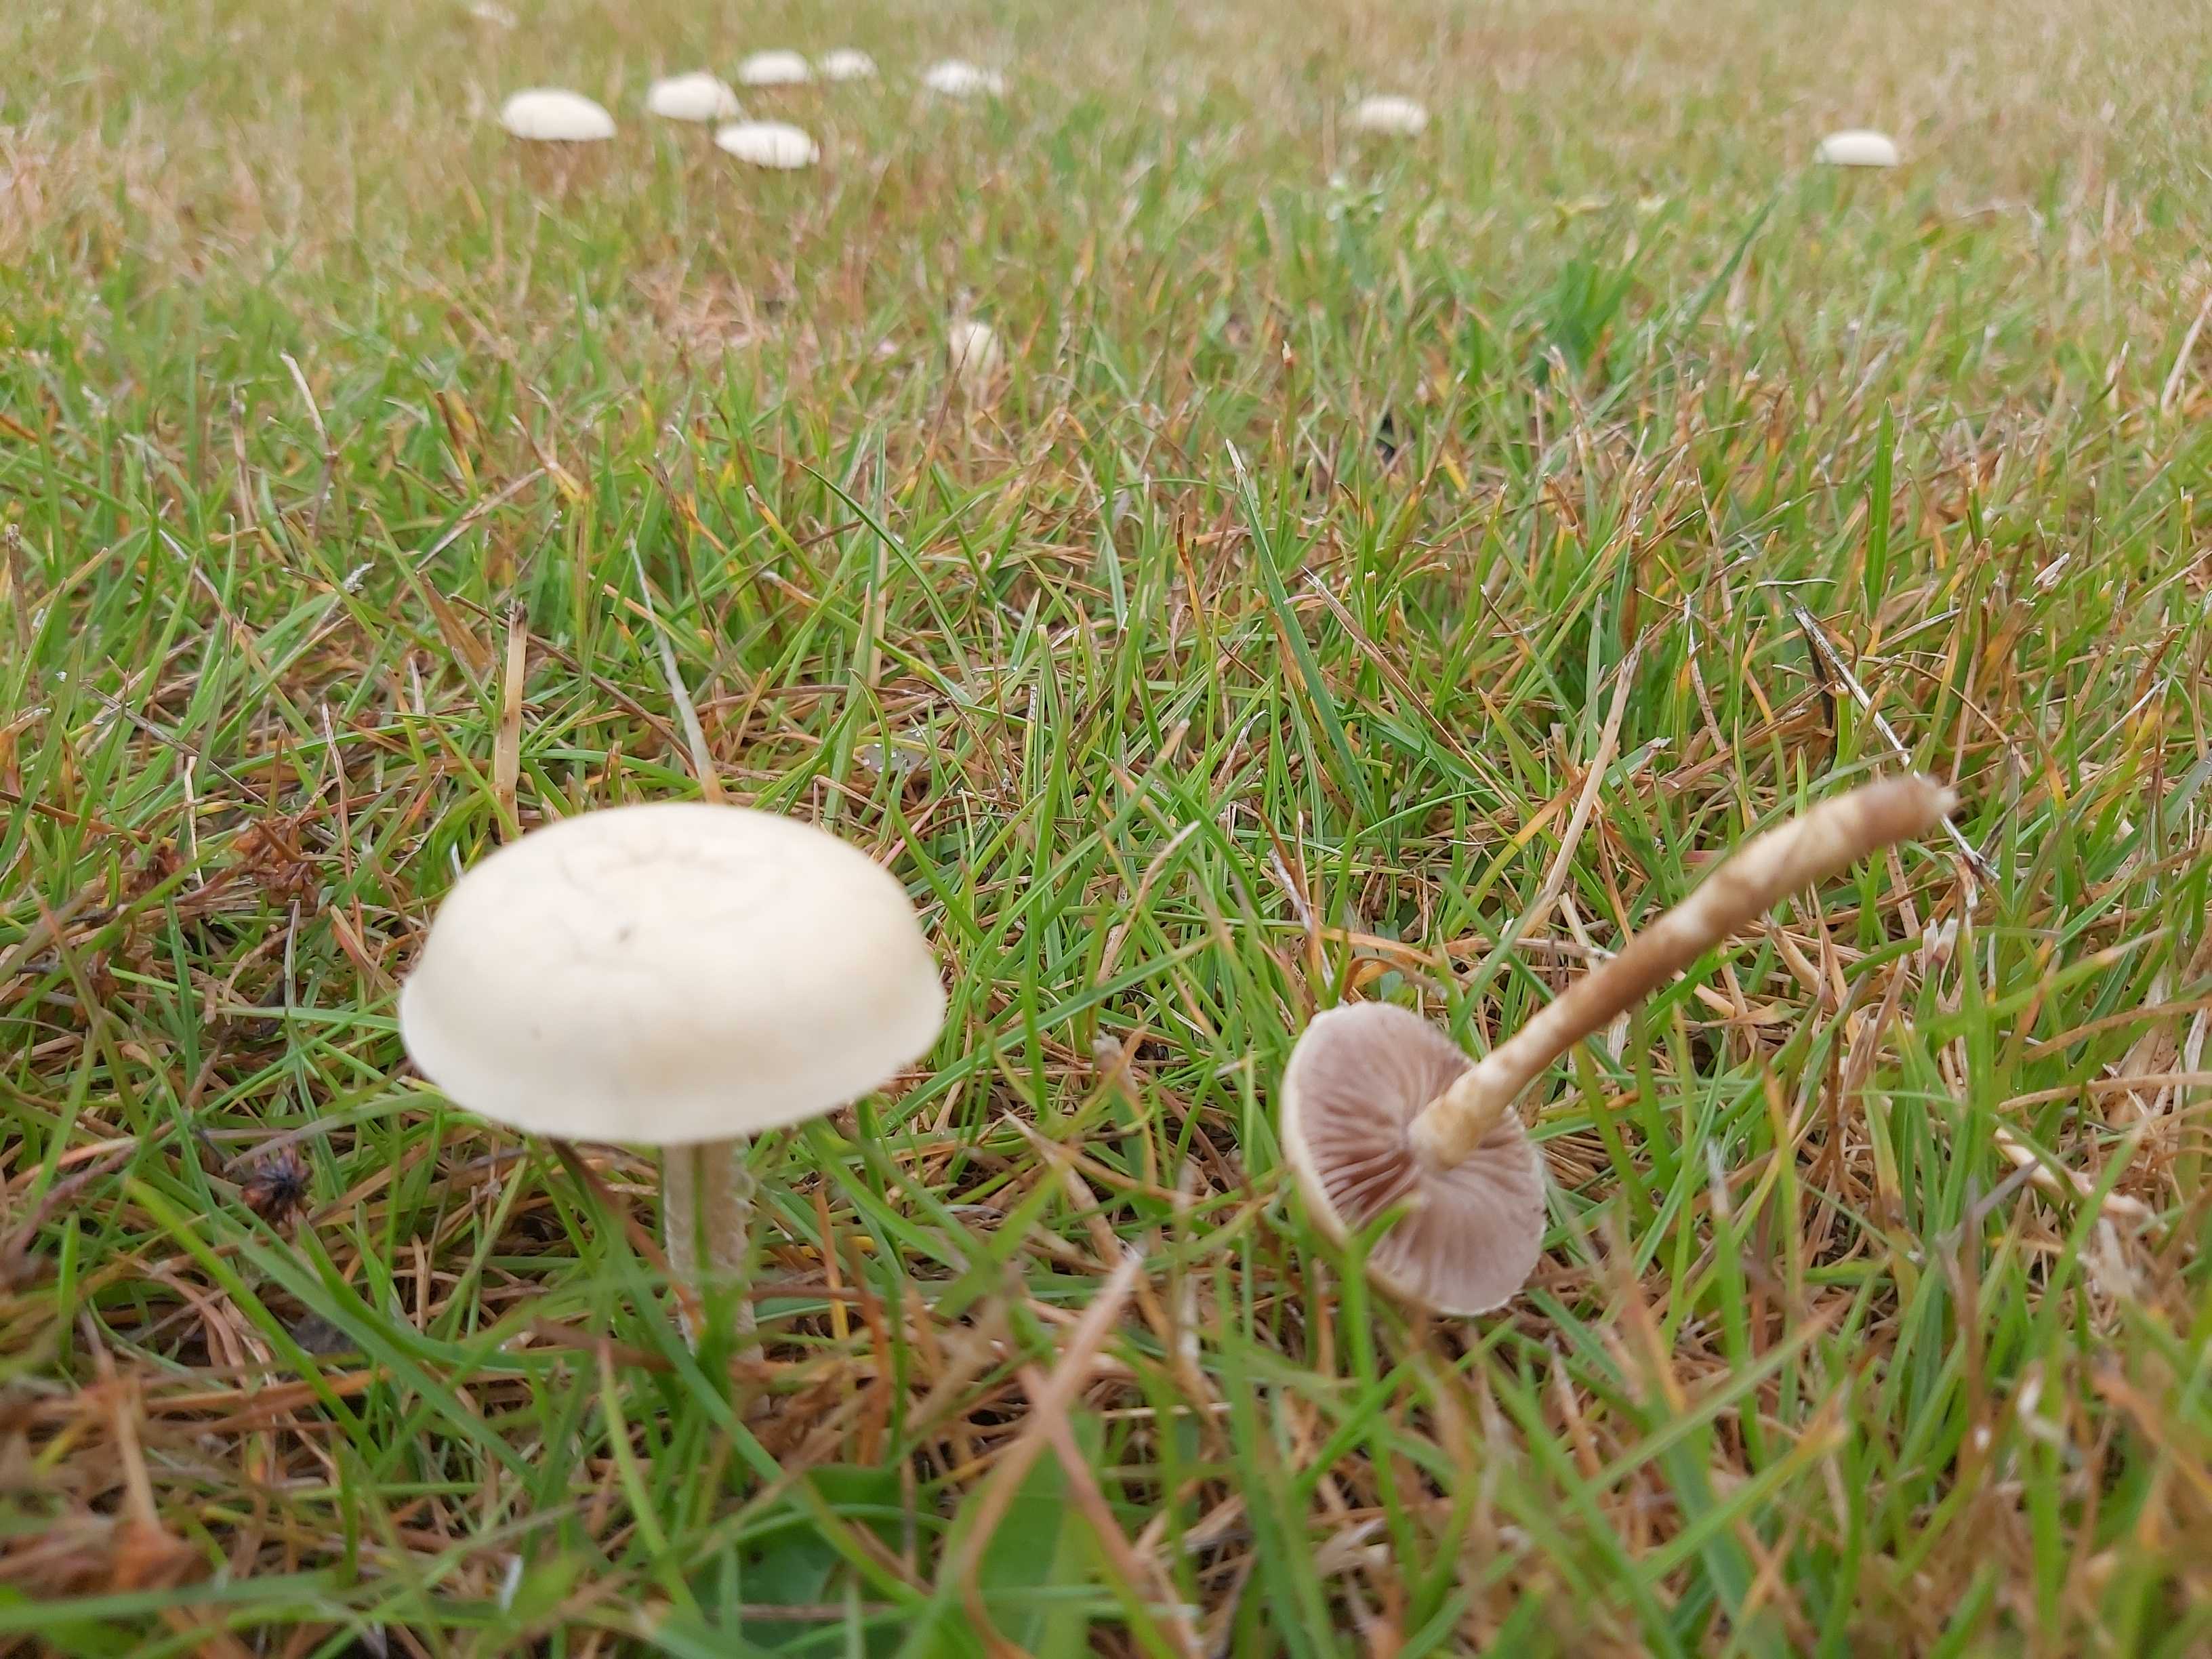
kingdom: Fungi
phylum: Basidiomycota
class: Agaricomycetes
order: Agaricales
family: Strophariaceae
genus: Agrocybe
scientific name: Agrocybe pediades
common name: almindelig agerhat
